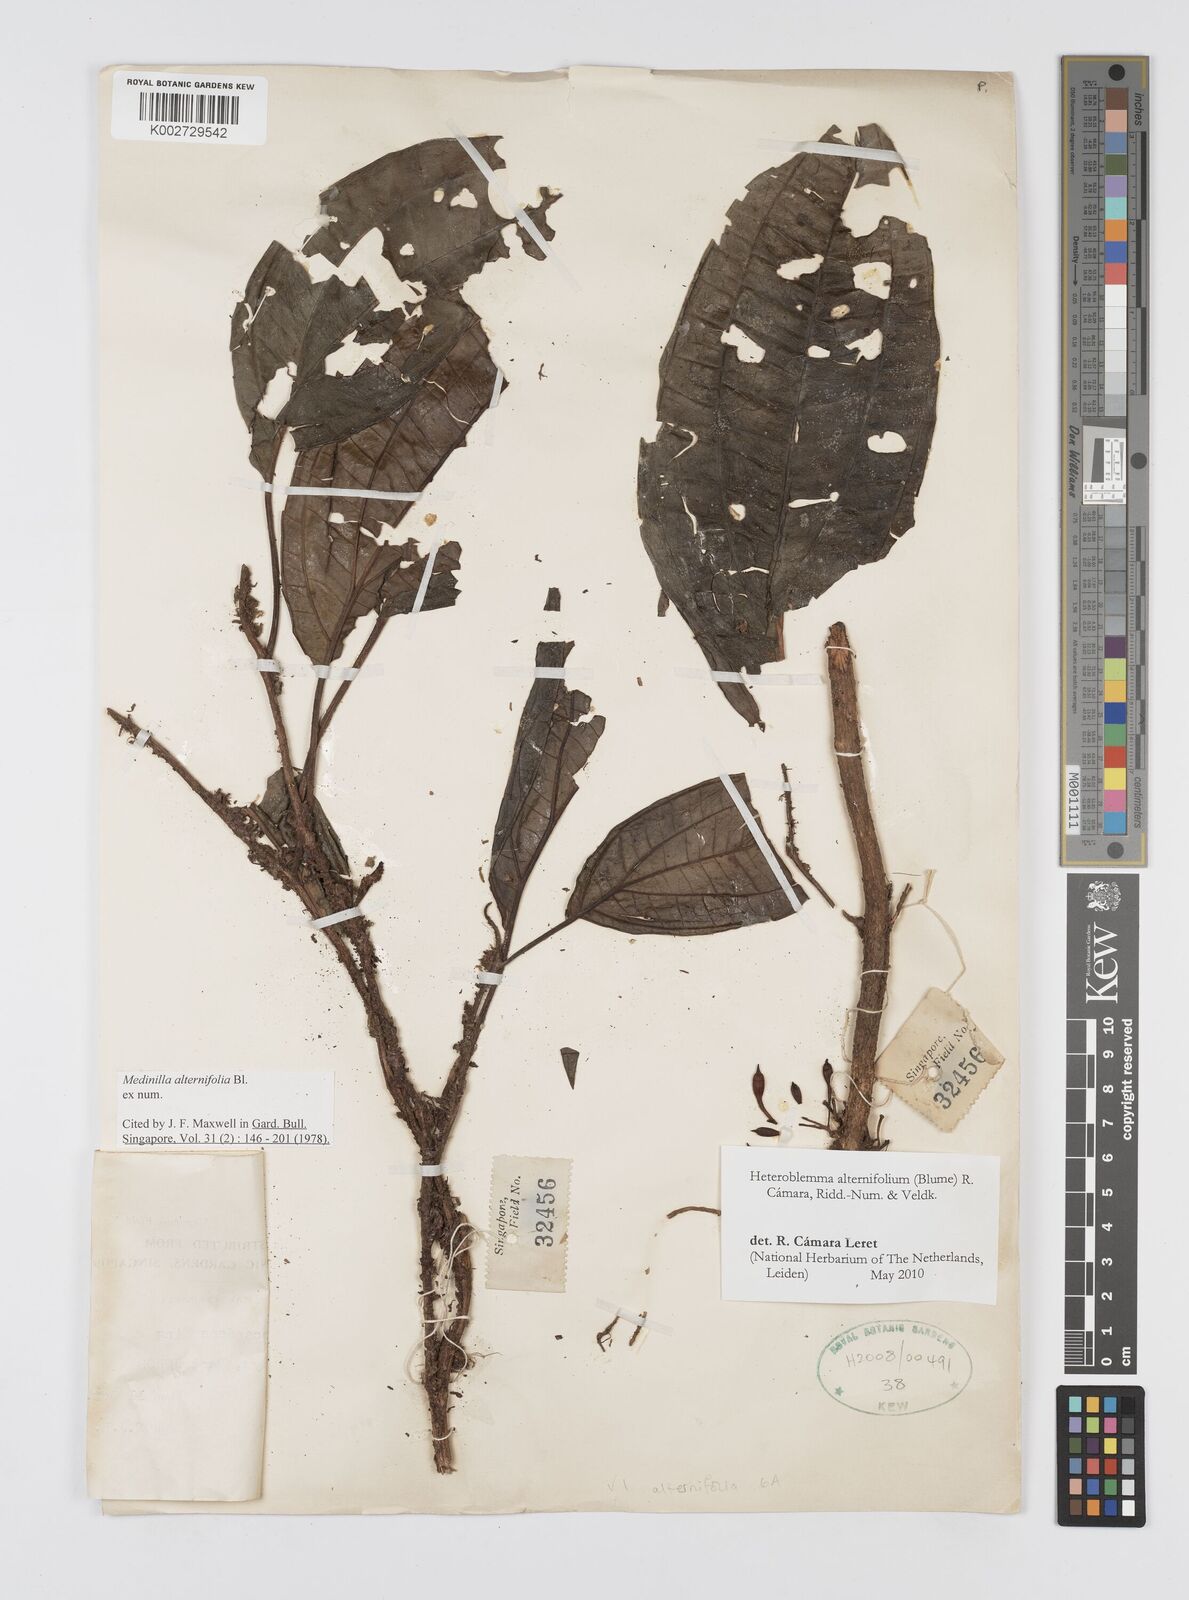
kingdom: Plantae
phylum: Tracheophyta
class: Magnoliopsida
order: Myrtales
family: Melastomataceae
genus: Heteroblemma
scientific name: Heteroblemma alternifolium
